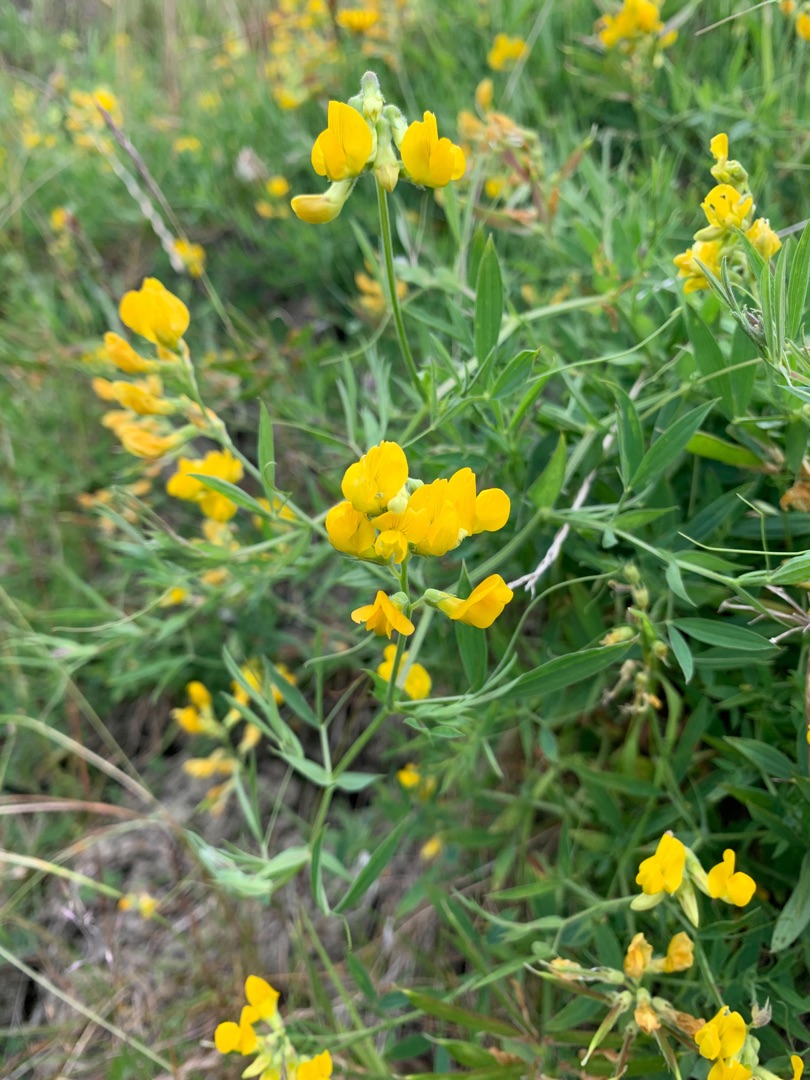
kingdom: Plantae
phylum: Tracheophyta
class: Magnoliopsida
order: Fabales
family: Fabaceae
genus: Lathyrus
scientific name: Lathyrus pratensis
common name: Gul fladbælg
